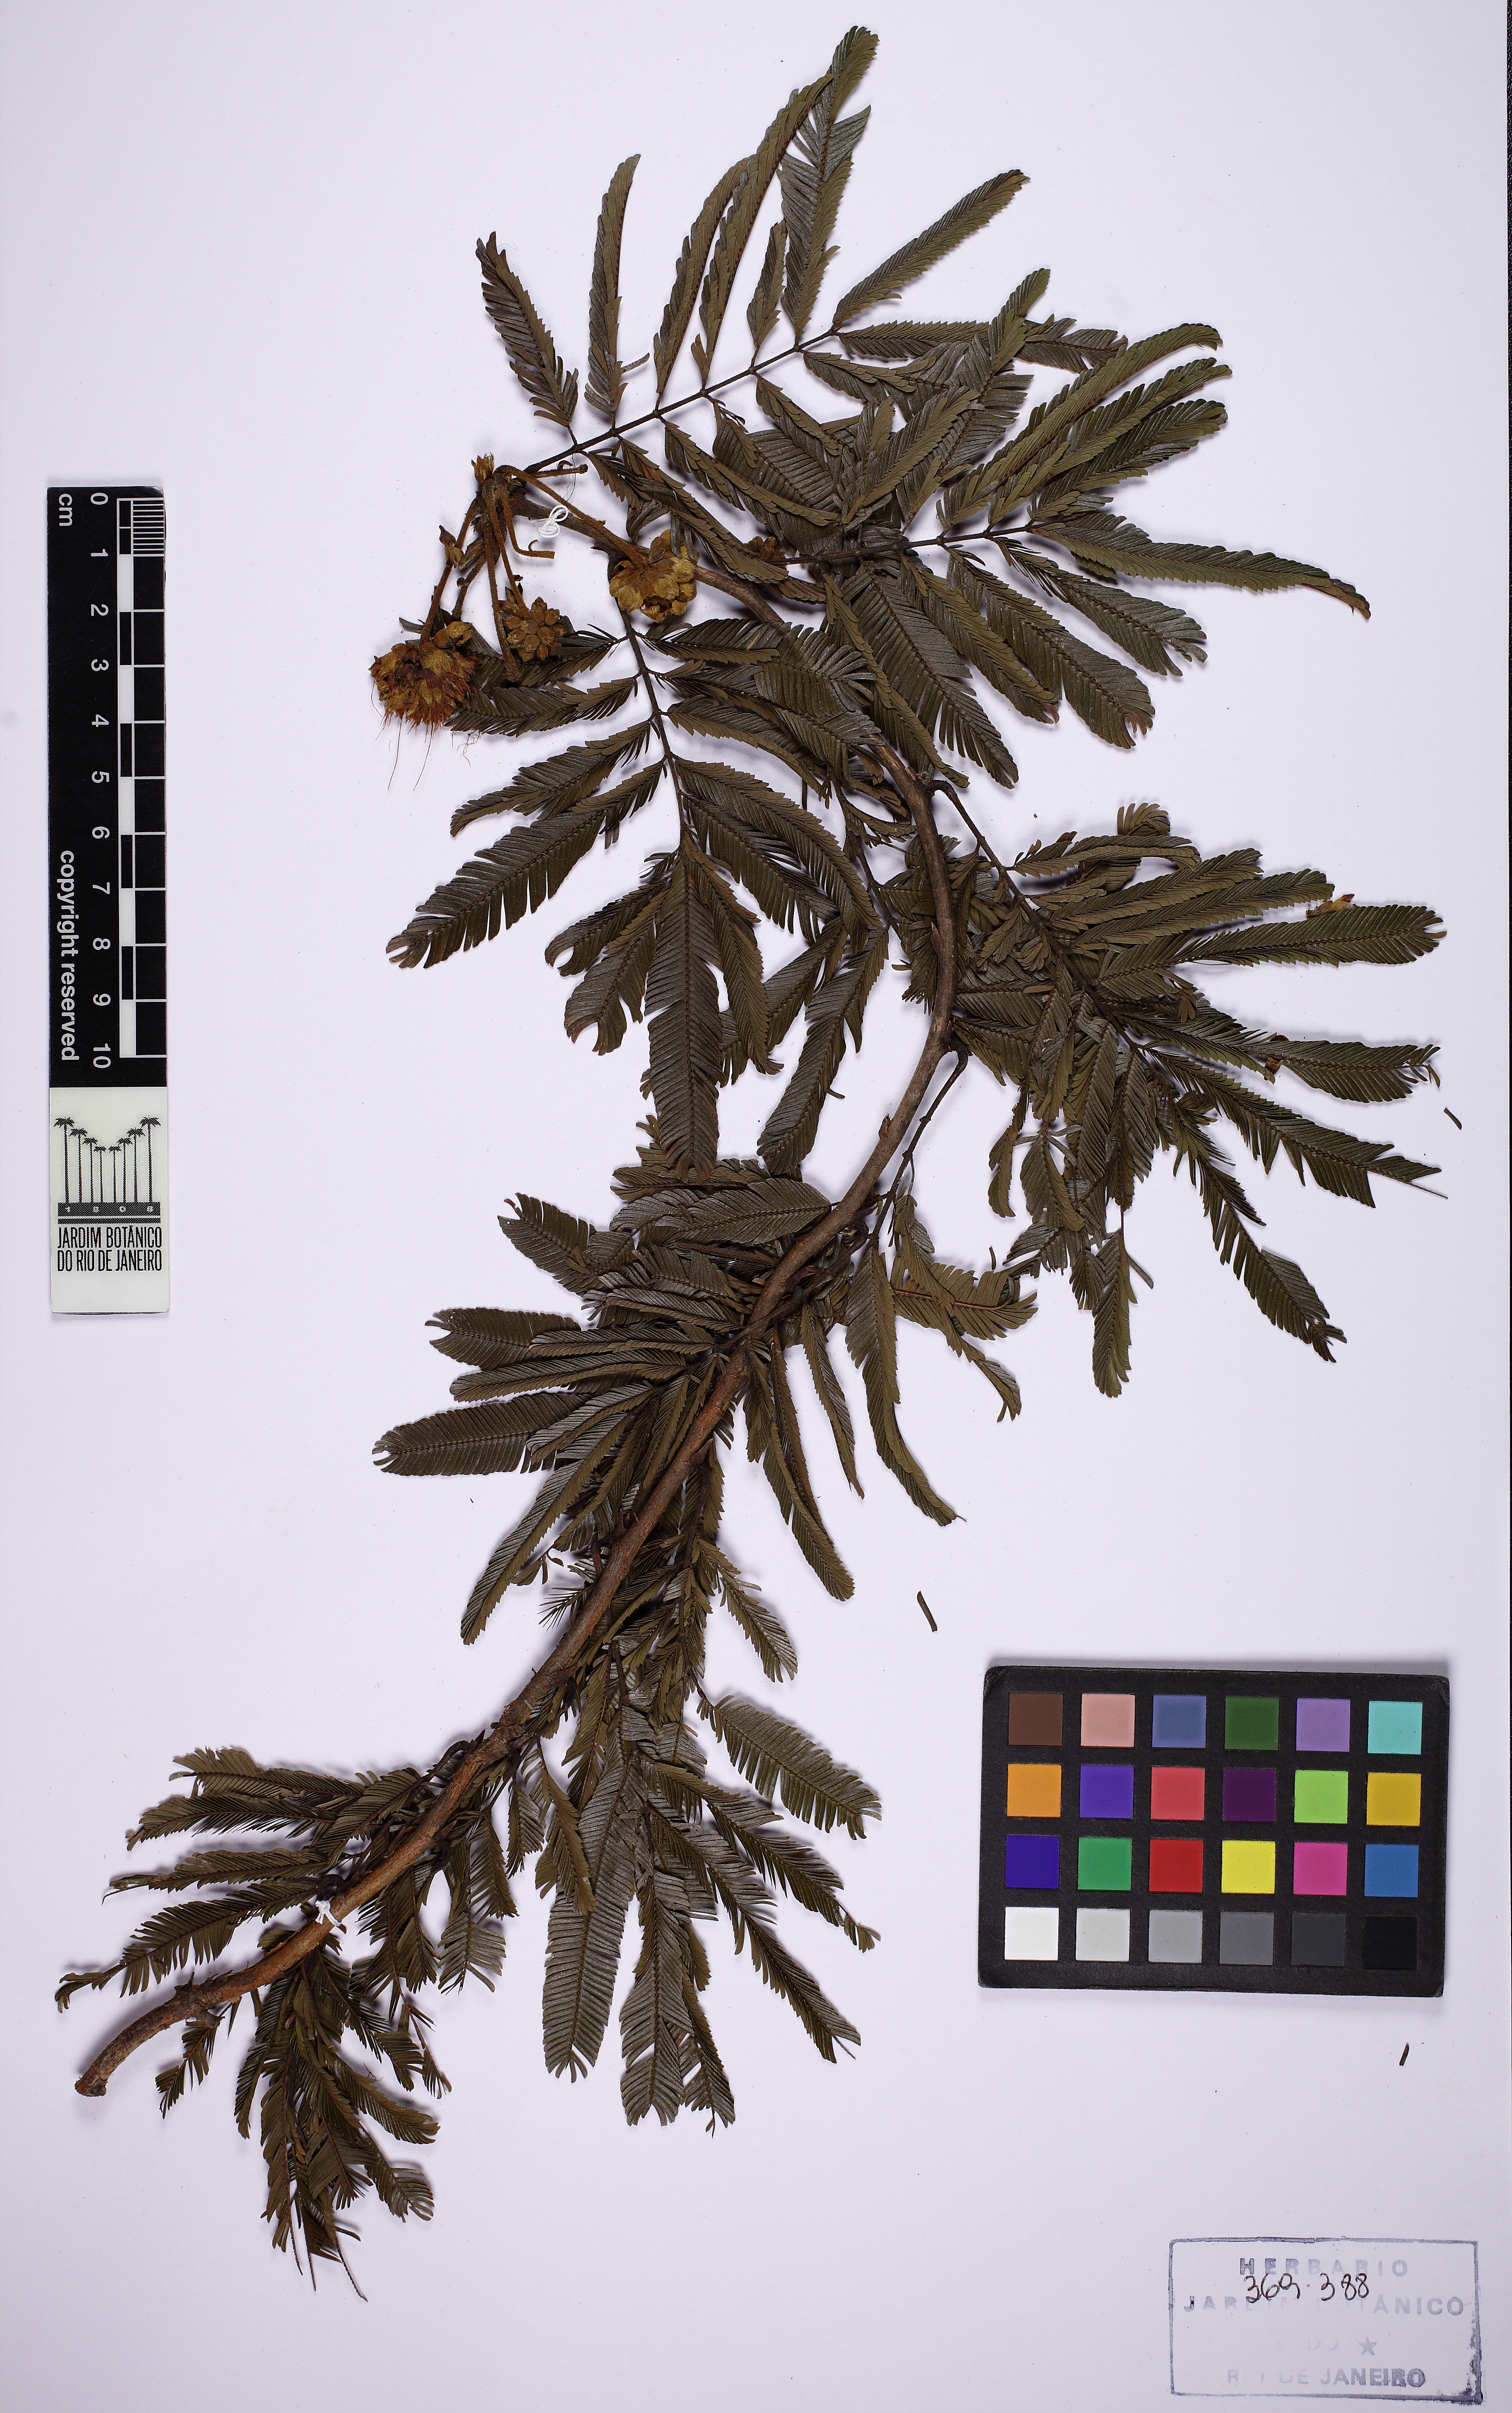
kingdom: Plantae
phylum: Tracheophyta
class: Magnoliopsida
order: Fabales
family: Fabaceae
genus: Calliandra
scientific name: Calliandra bella
